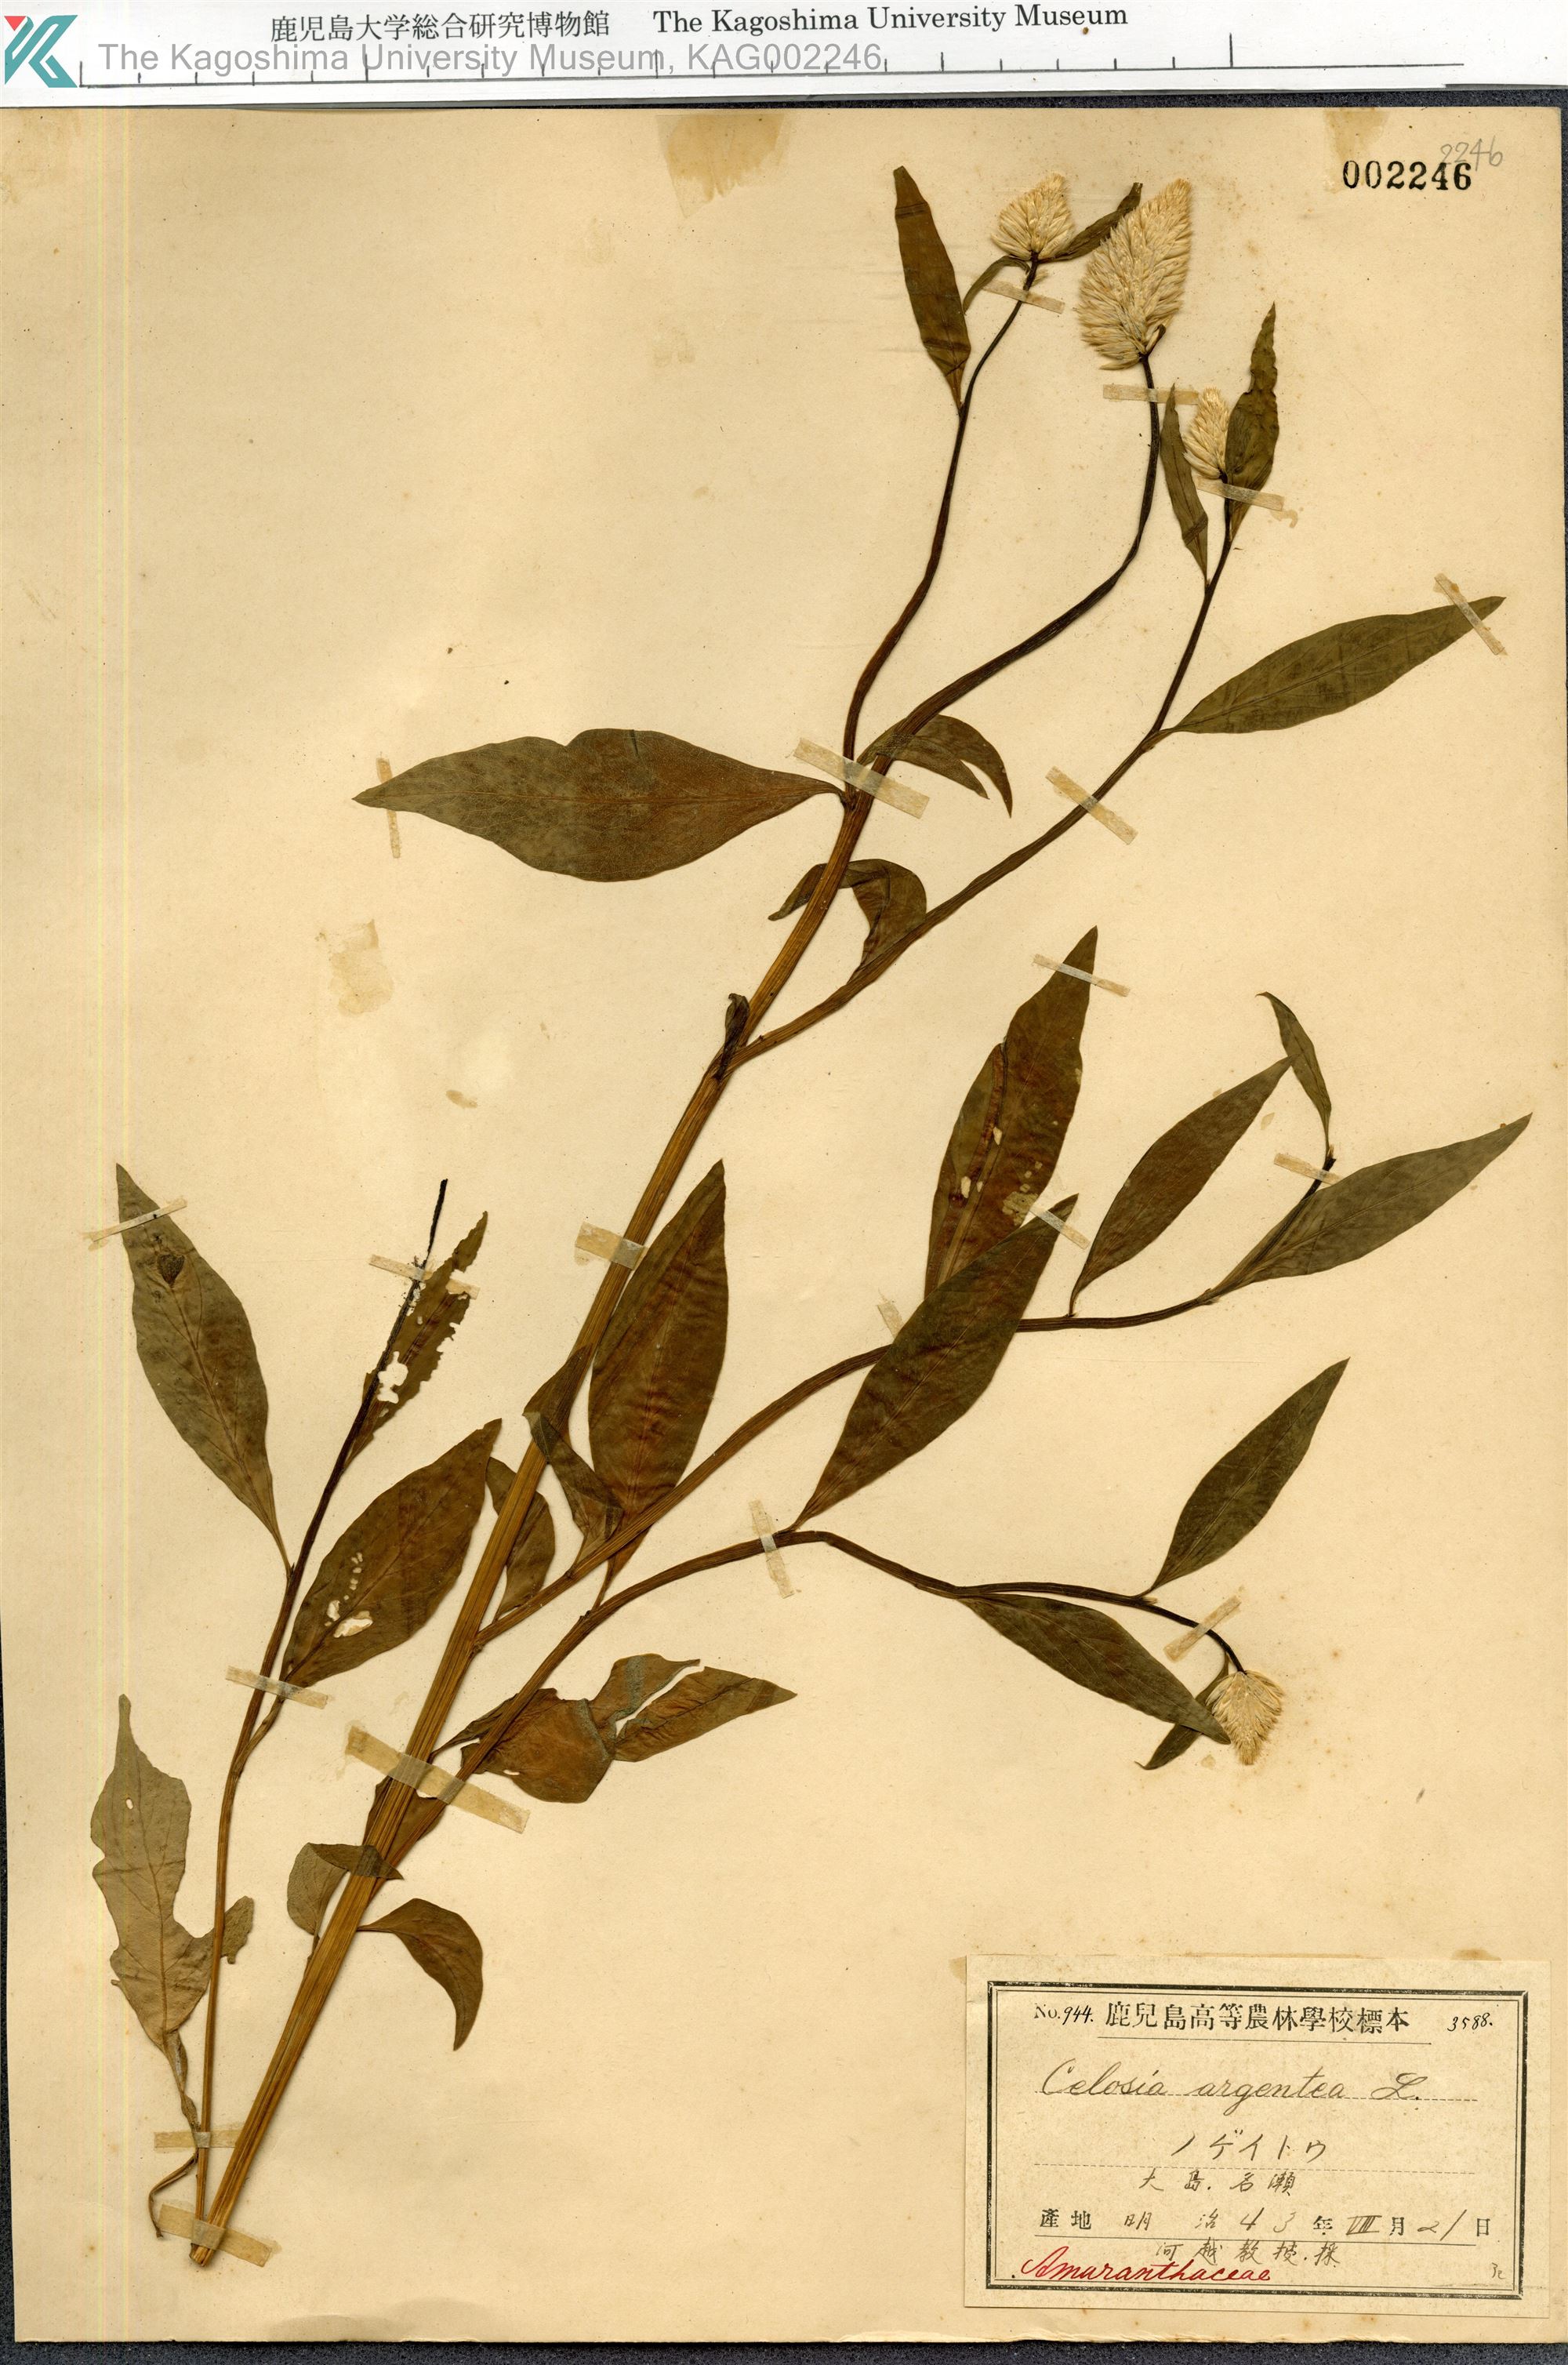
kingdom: Plantae
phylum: Tracheophyta
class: Magnoliopsida
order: Caryophyllales
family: Amaranthaceae
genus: Celosia
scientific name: Celosia argentea
